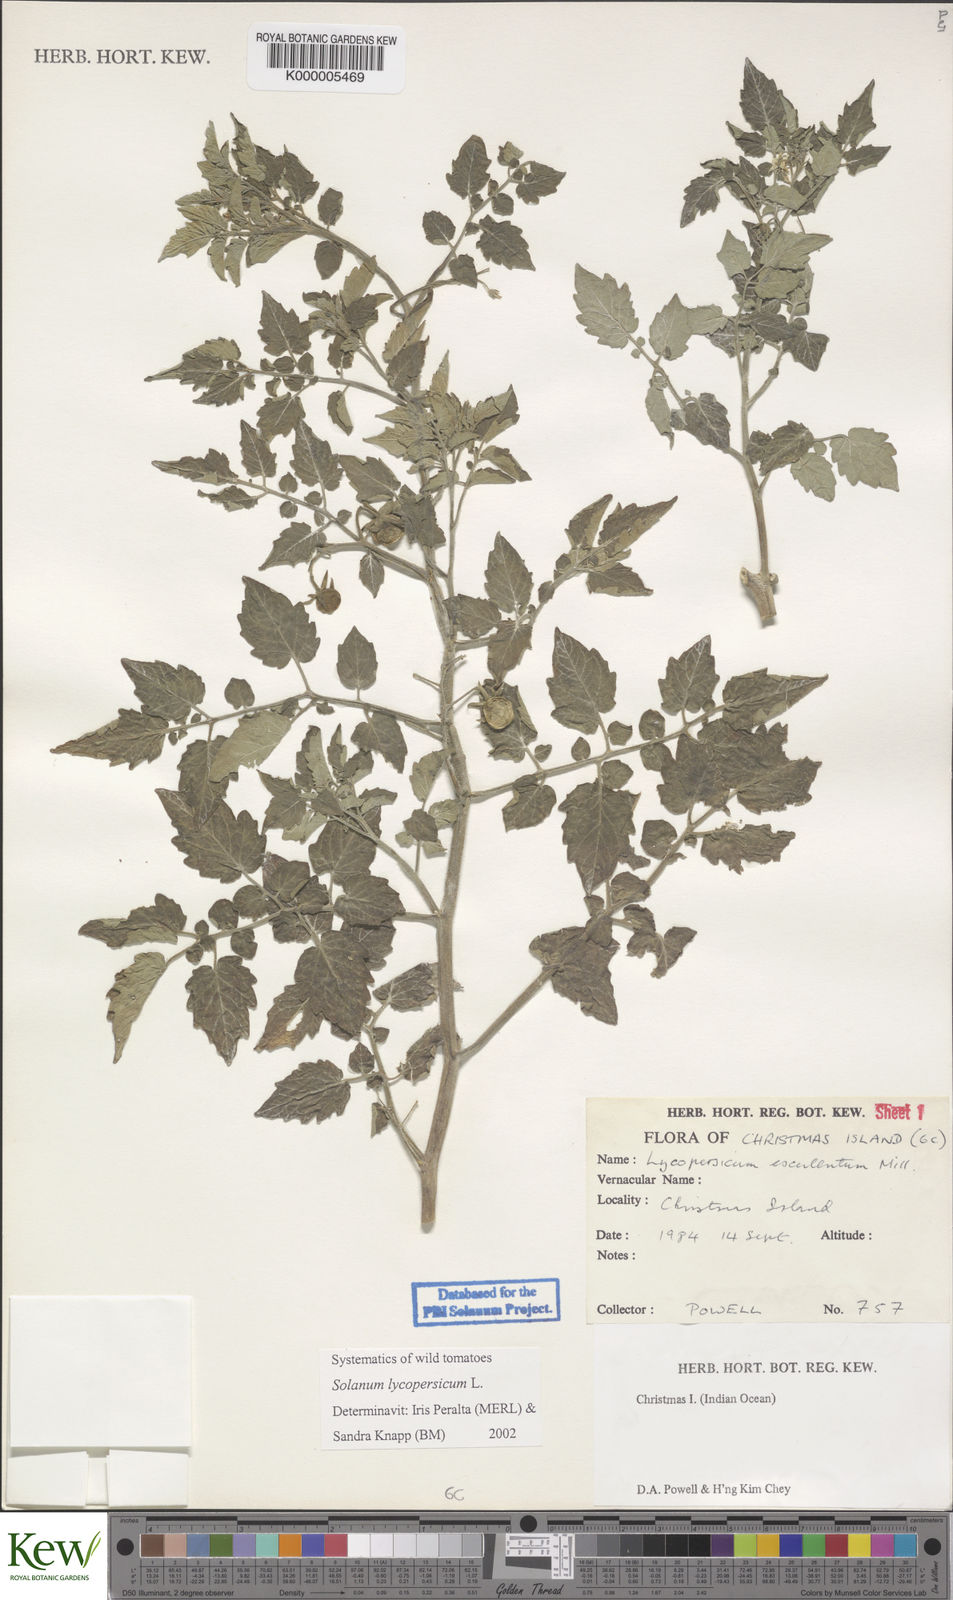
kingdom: Plantae
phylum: Tracheophyta
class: Magnoliopsida
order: Solanales
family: Solanaceae
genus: Solanum
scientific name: Solanum lycopersicum
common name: Garden tomato
